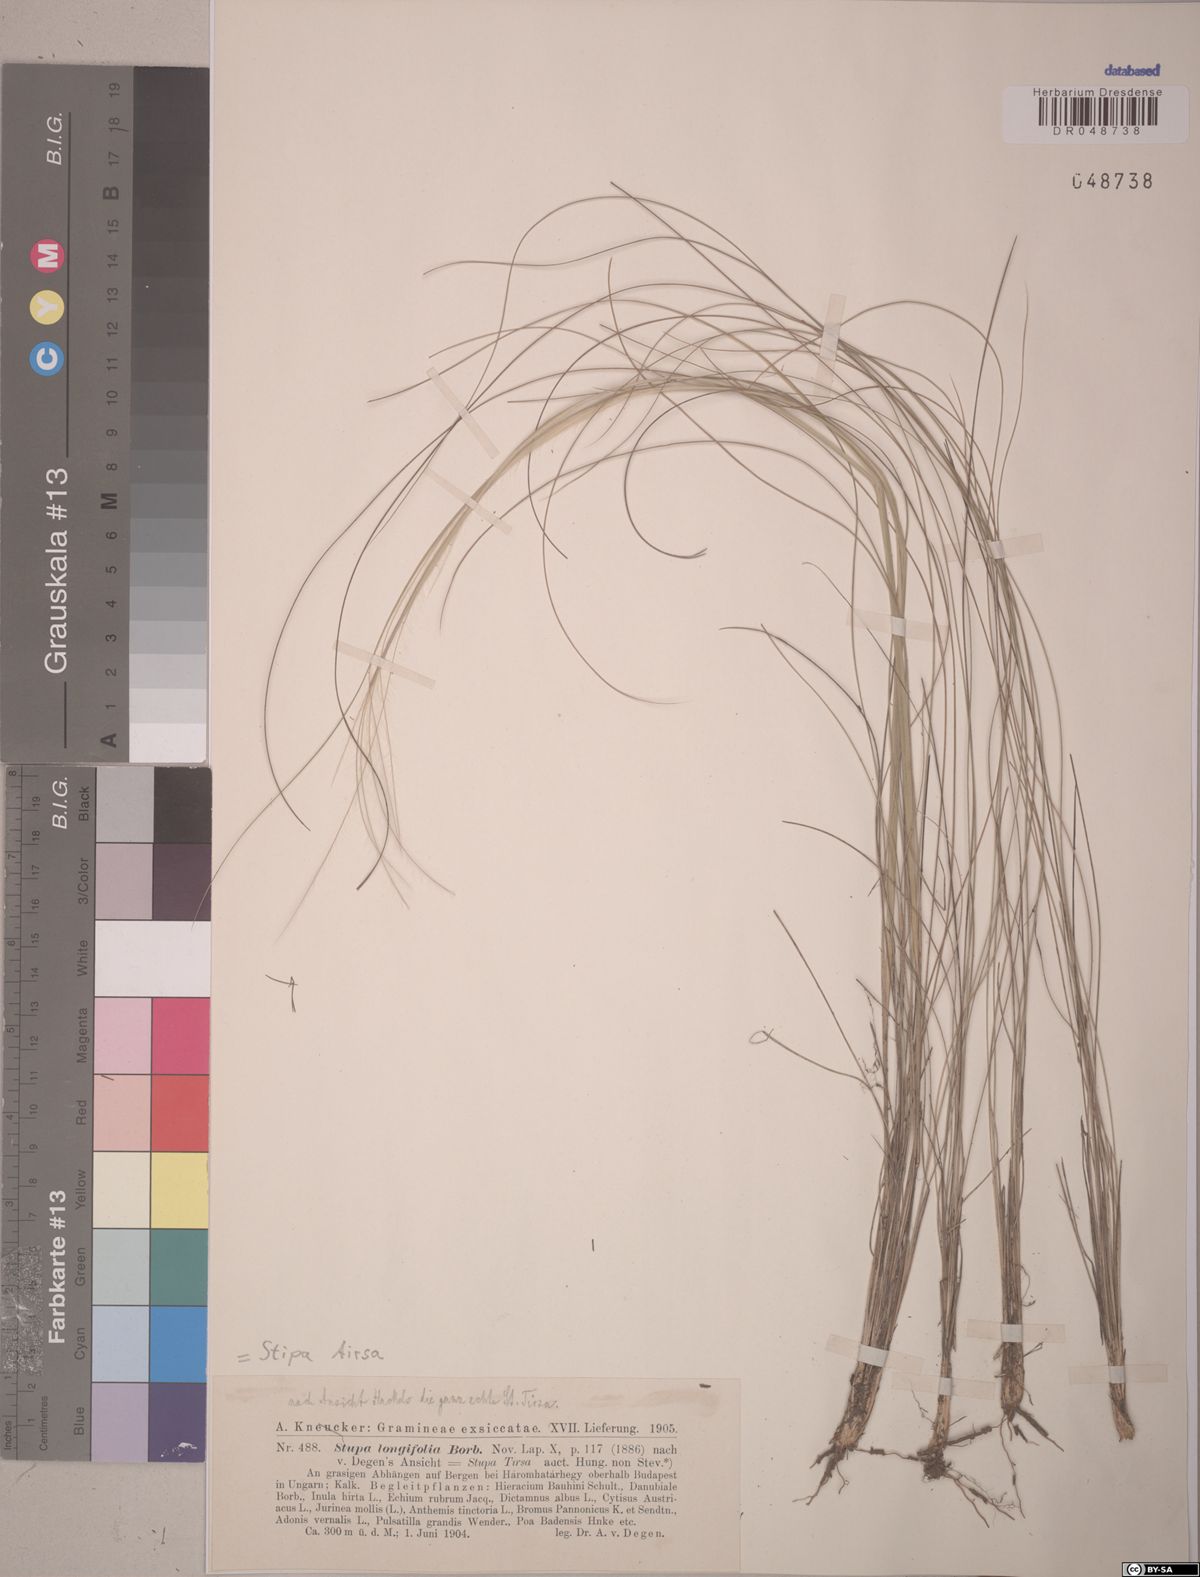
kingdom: Plantae
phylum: Tracheophyta
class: Liliopsida
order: Poales
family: Poaceae
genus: Stipa
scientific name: Stipa tirsa
